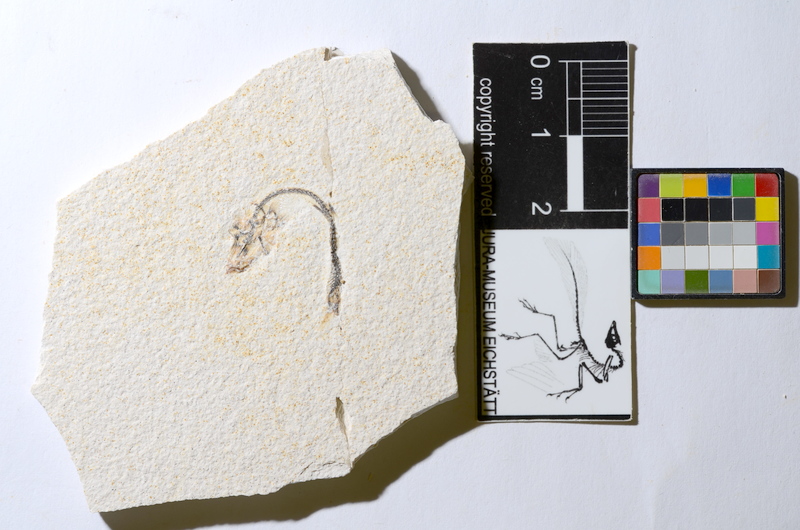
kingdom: Animalia
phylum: Chordata
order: Salmoniformes
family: Orthogonikleithridae
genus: Orthogonikleithrus
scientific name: Orthogonikleithrus hoelli
